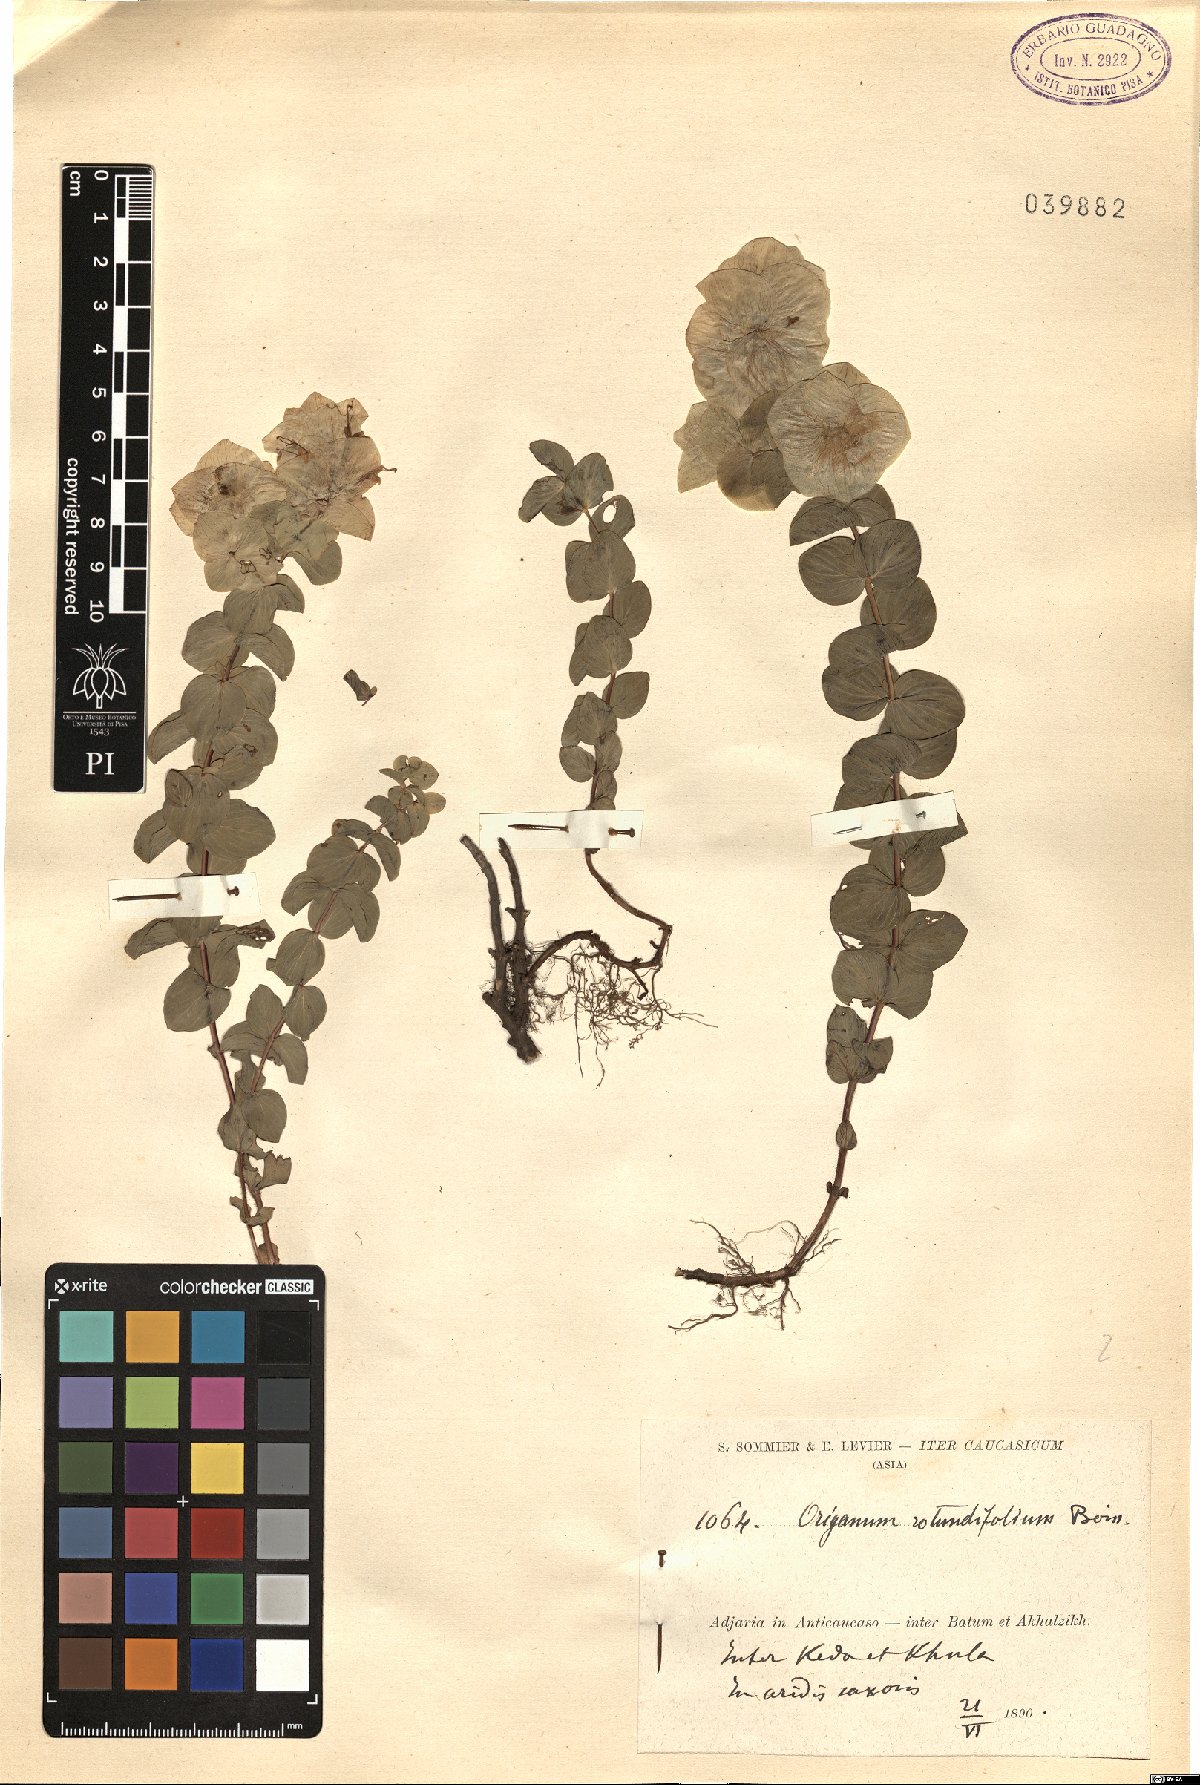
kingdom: Plantae
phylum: Tracheophyta
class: Magnoliopsida
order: Lamiales
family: Lamiaceae
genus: Origanum
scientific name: Origanum rotundifolium
